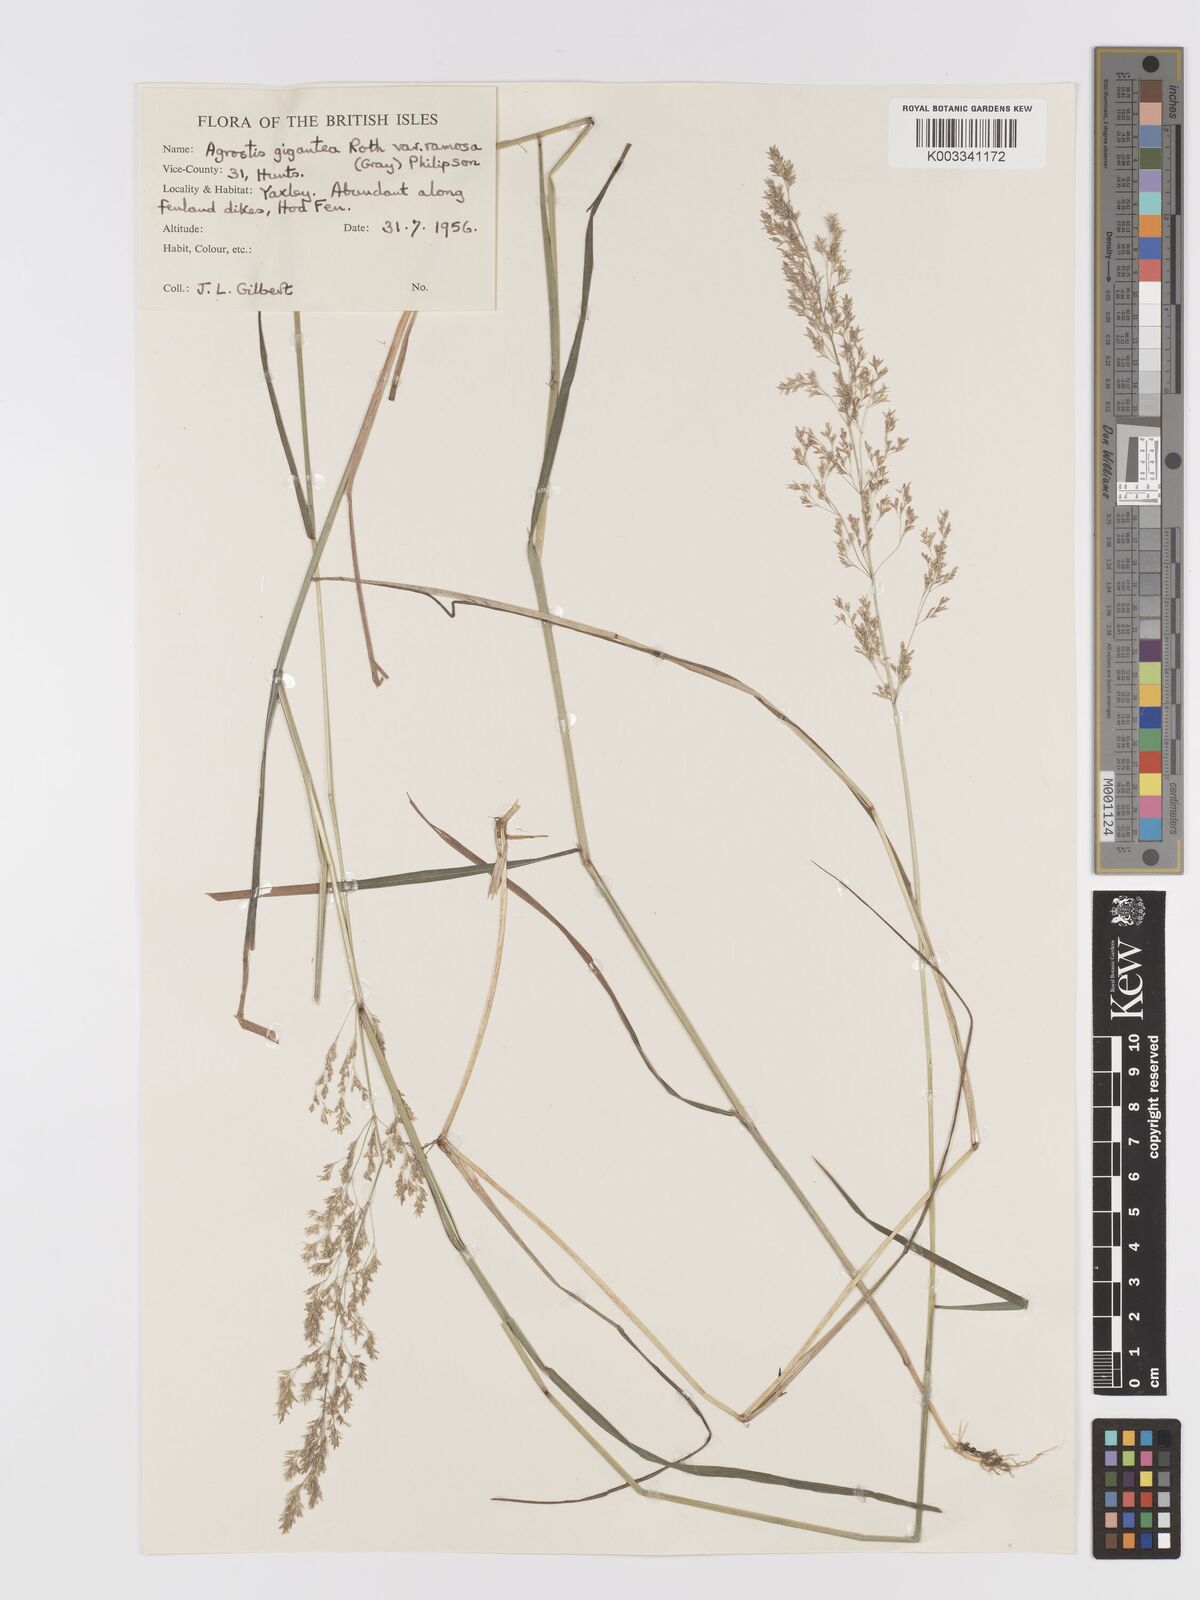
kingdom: Plantae
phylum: Tracheophyta
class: Liliopsida
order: Poales
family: Poaceae
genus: Agrostis
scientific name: Agrostis gigantea
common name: Black bent
